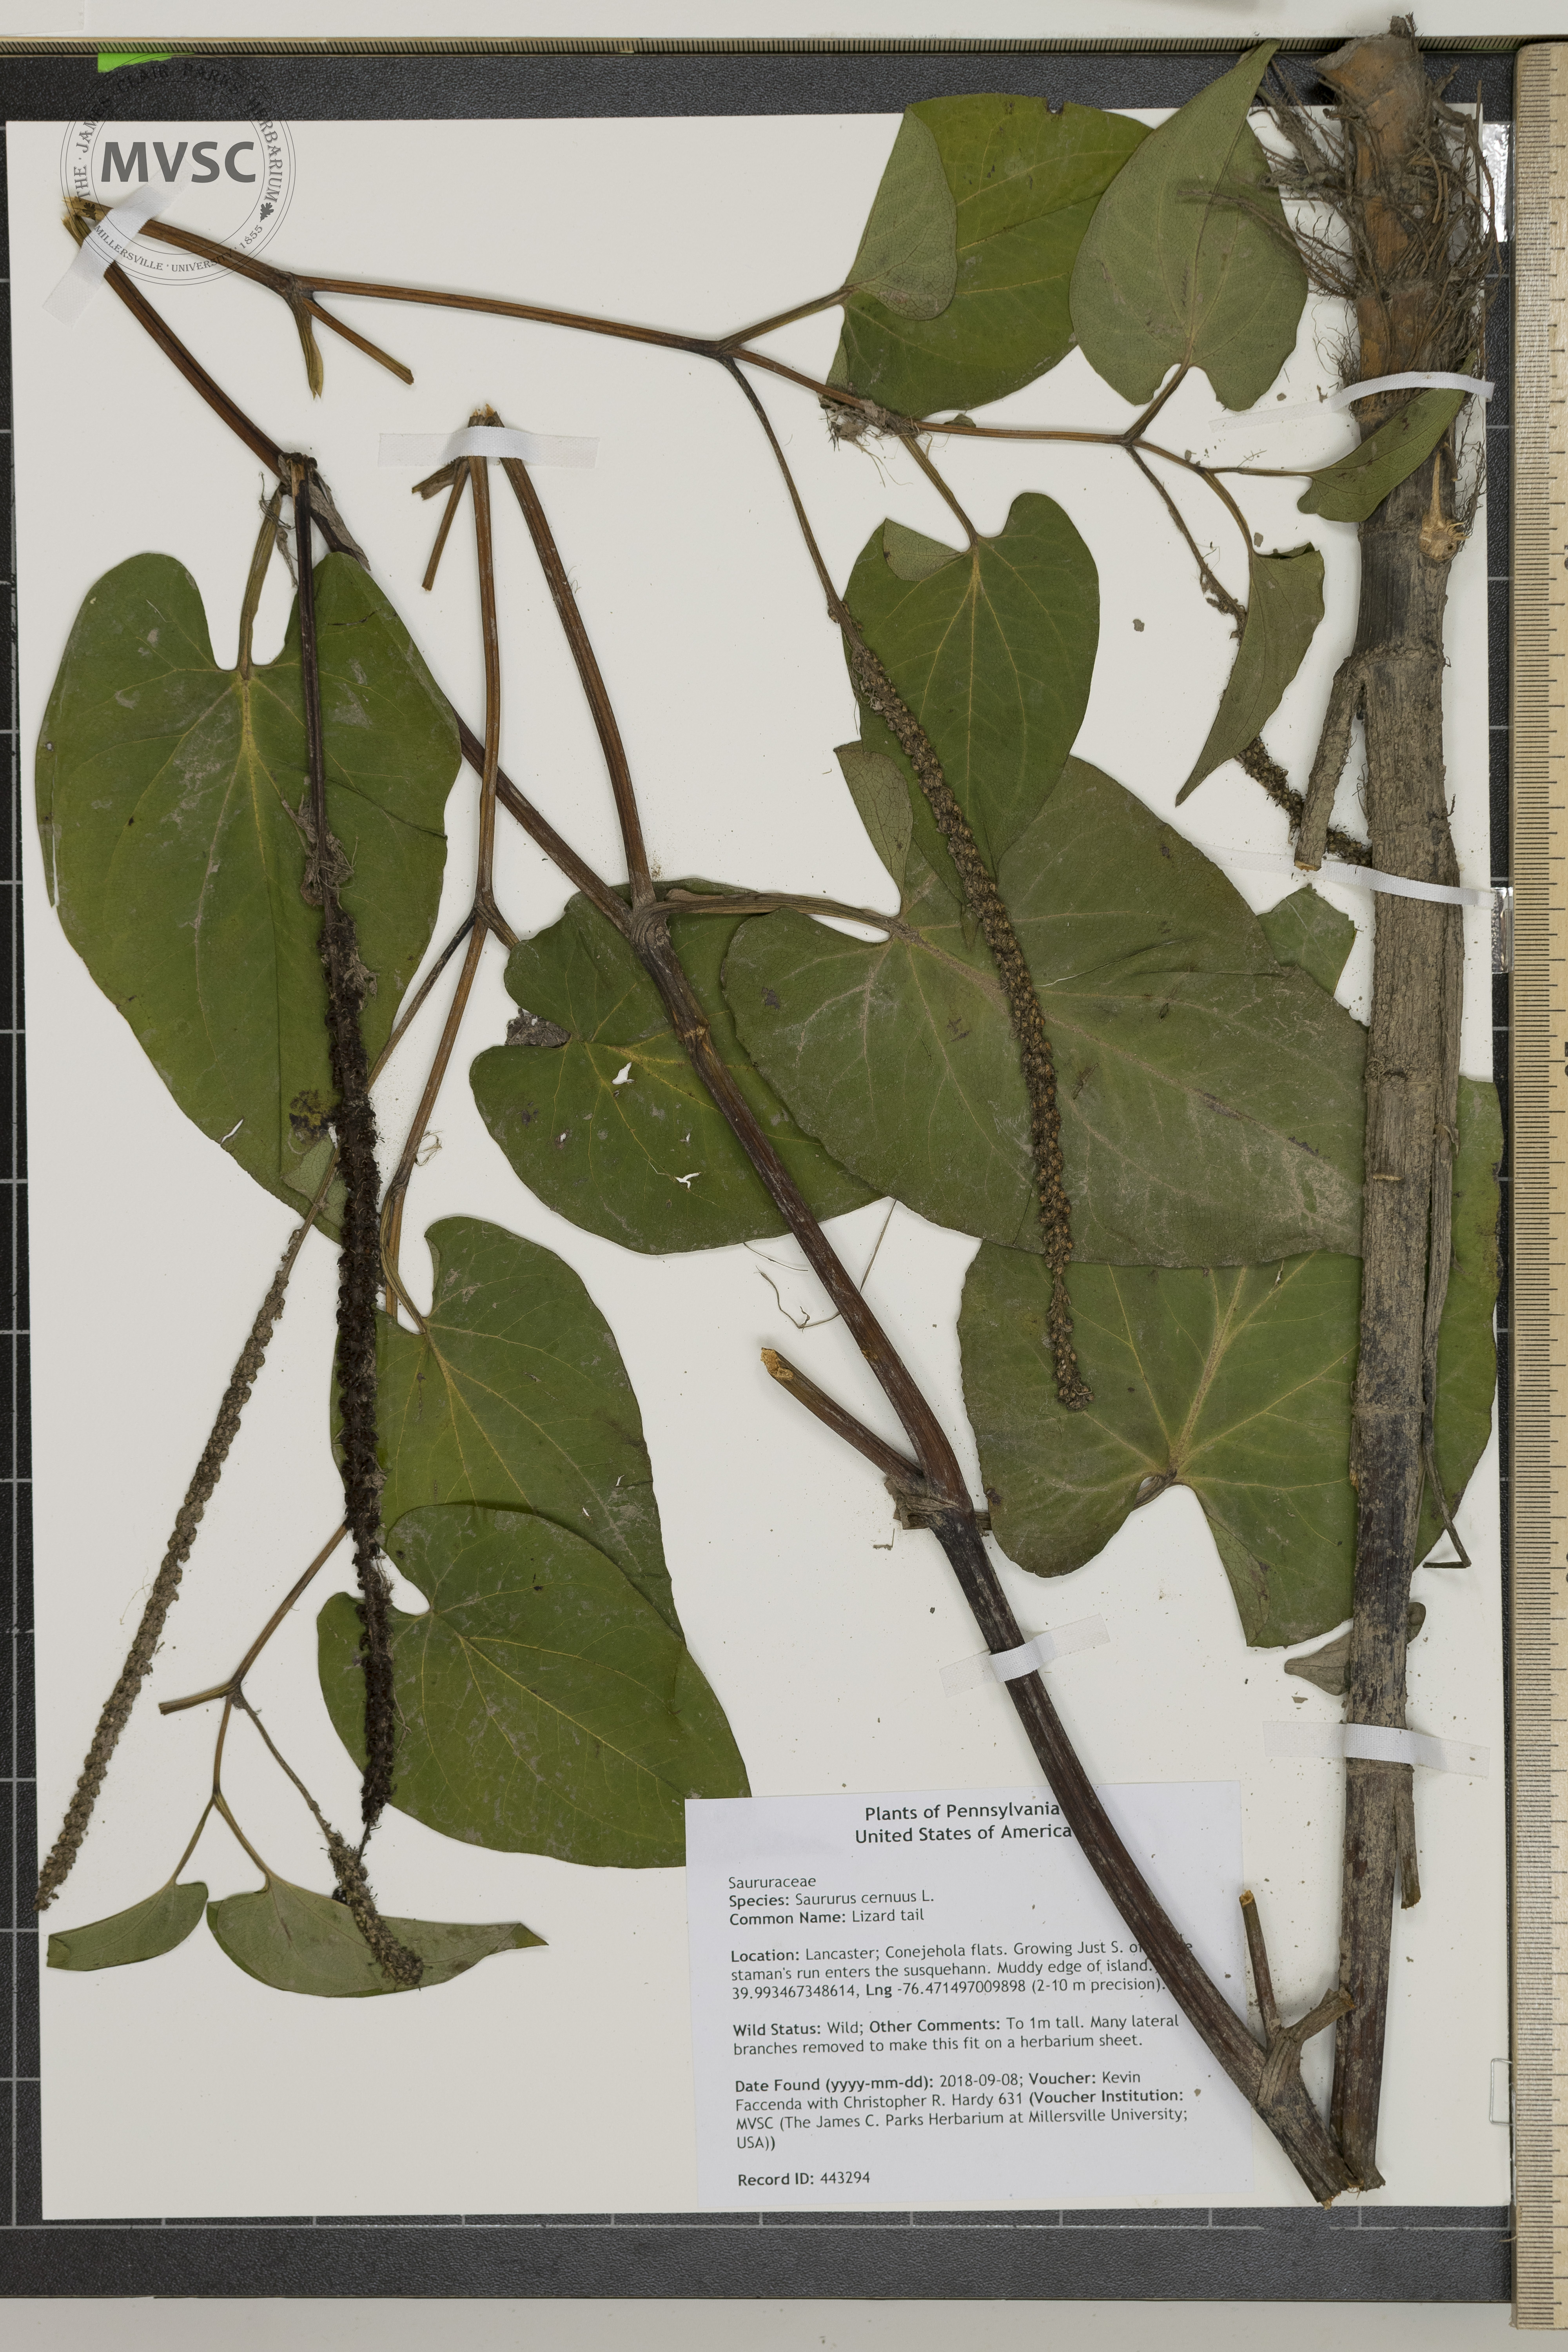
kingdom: Plantae
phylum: Tracheophyta
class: Magnoliopsida
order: Piperales
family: Saururaceae
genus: Saururus
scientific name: Saururus cernuus
